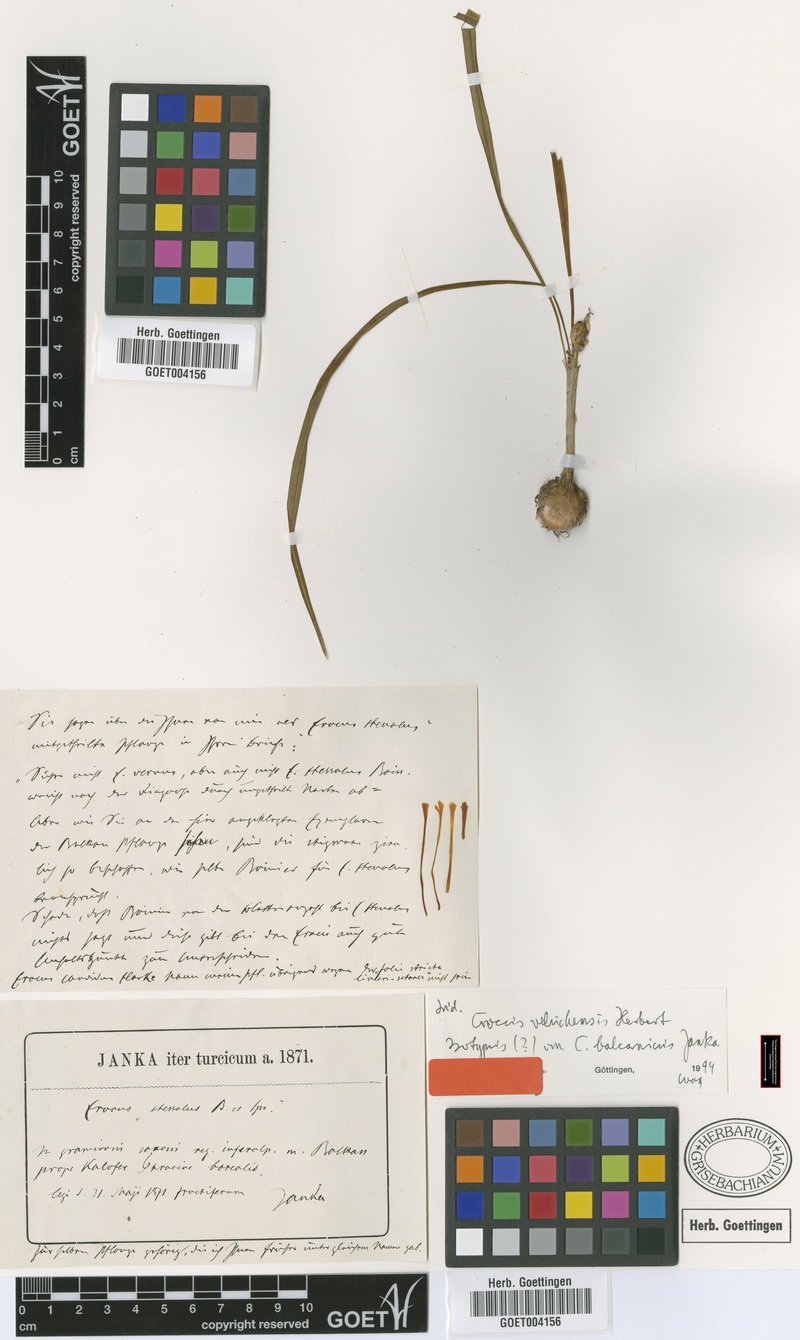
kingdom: Plantae
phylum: Tracheophyta
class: Liliopsida
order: Asparagales
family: Iridaceae
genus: Crocus
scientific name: Crocus veluchensis
